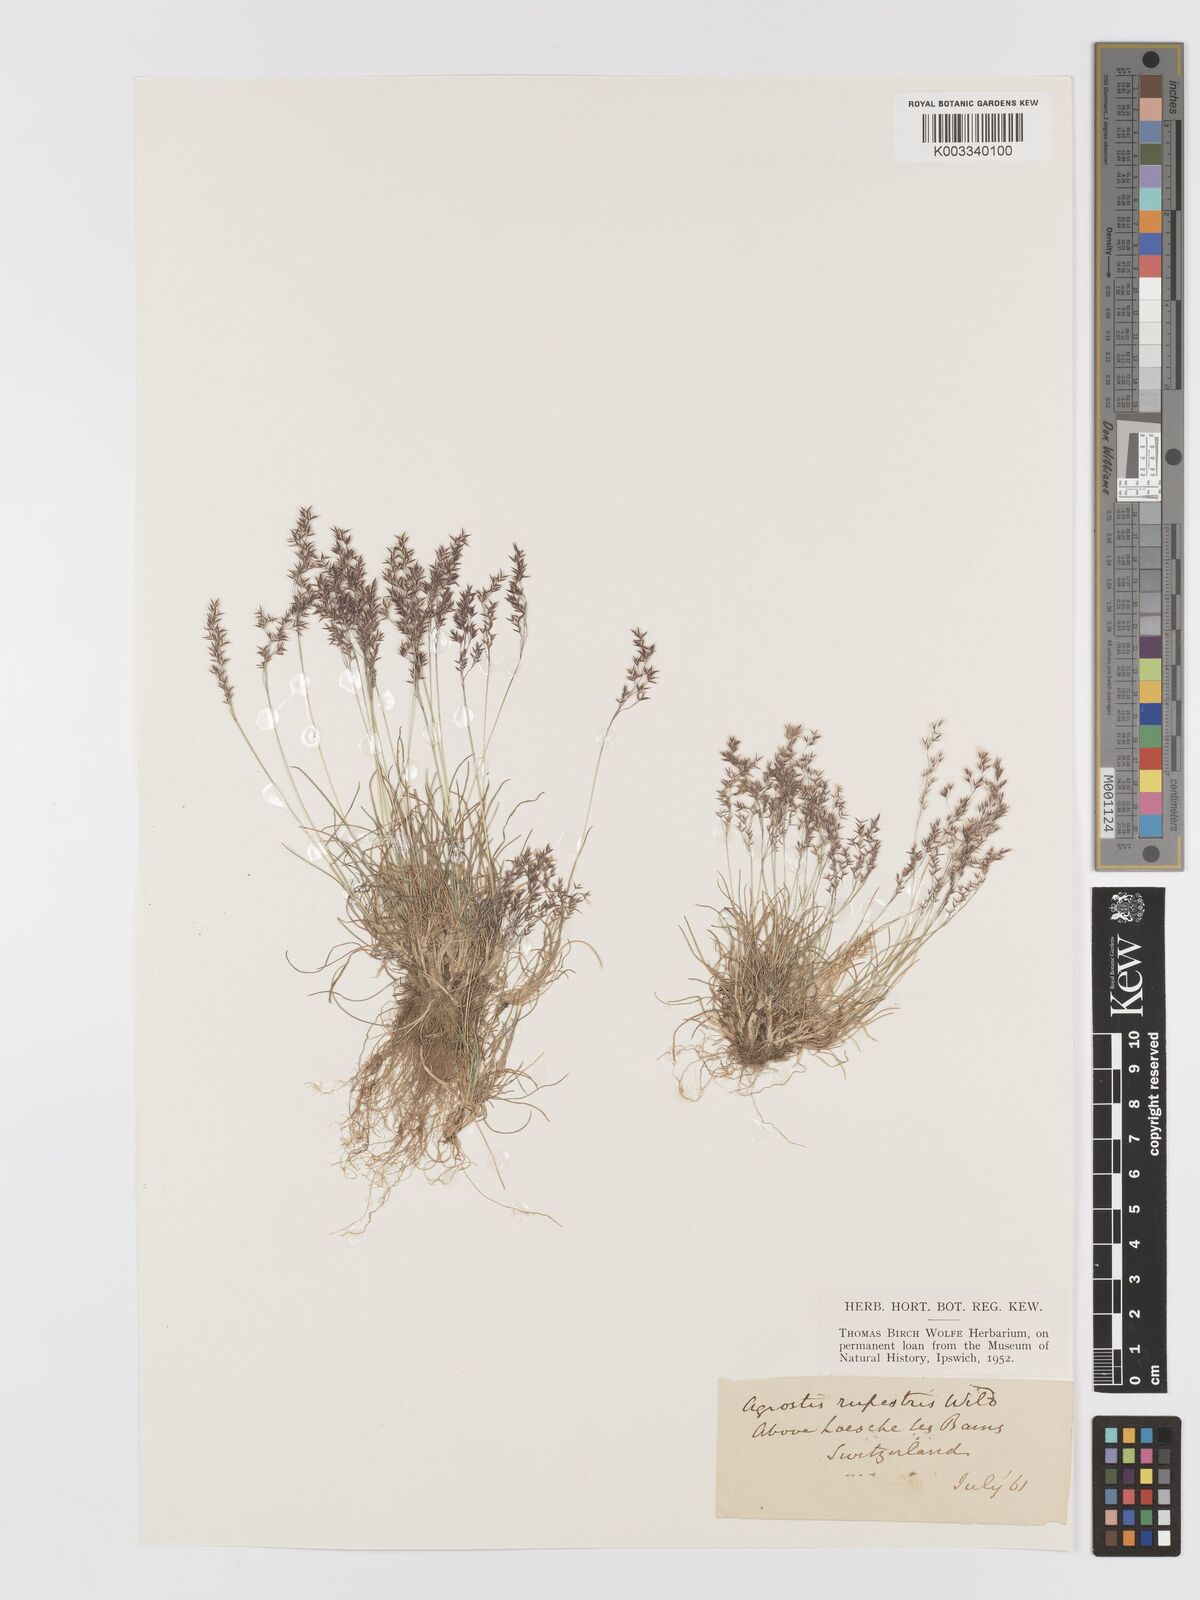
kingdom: Plantae
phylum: Tracheophyta
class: Liliopsida
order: Poales
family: Poaceae
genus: Agrostis
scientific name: Agrostis rupestris
